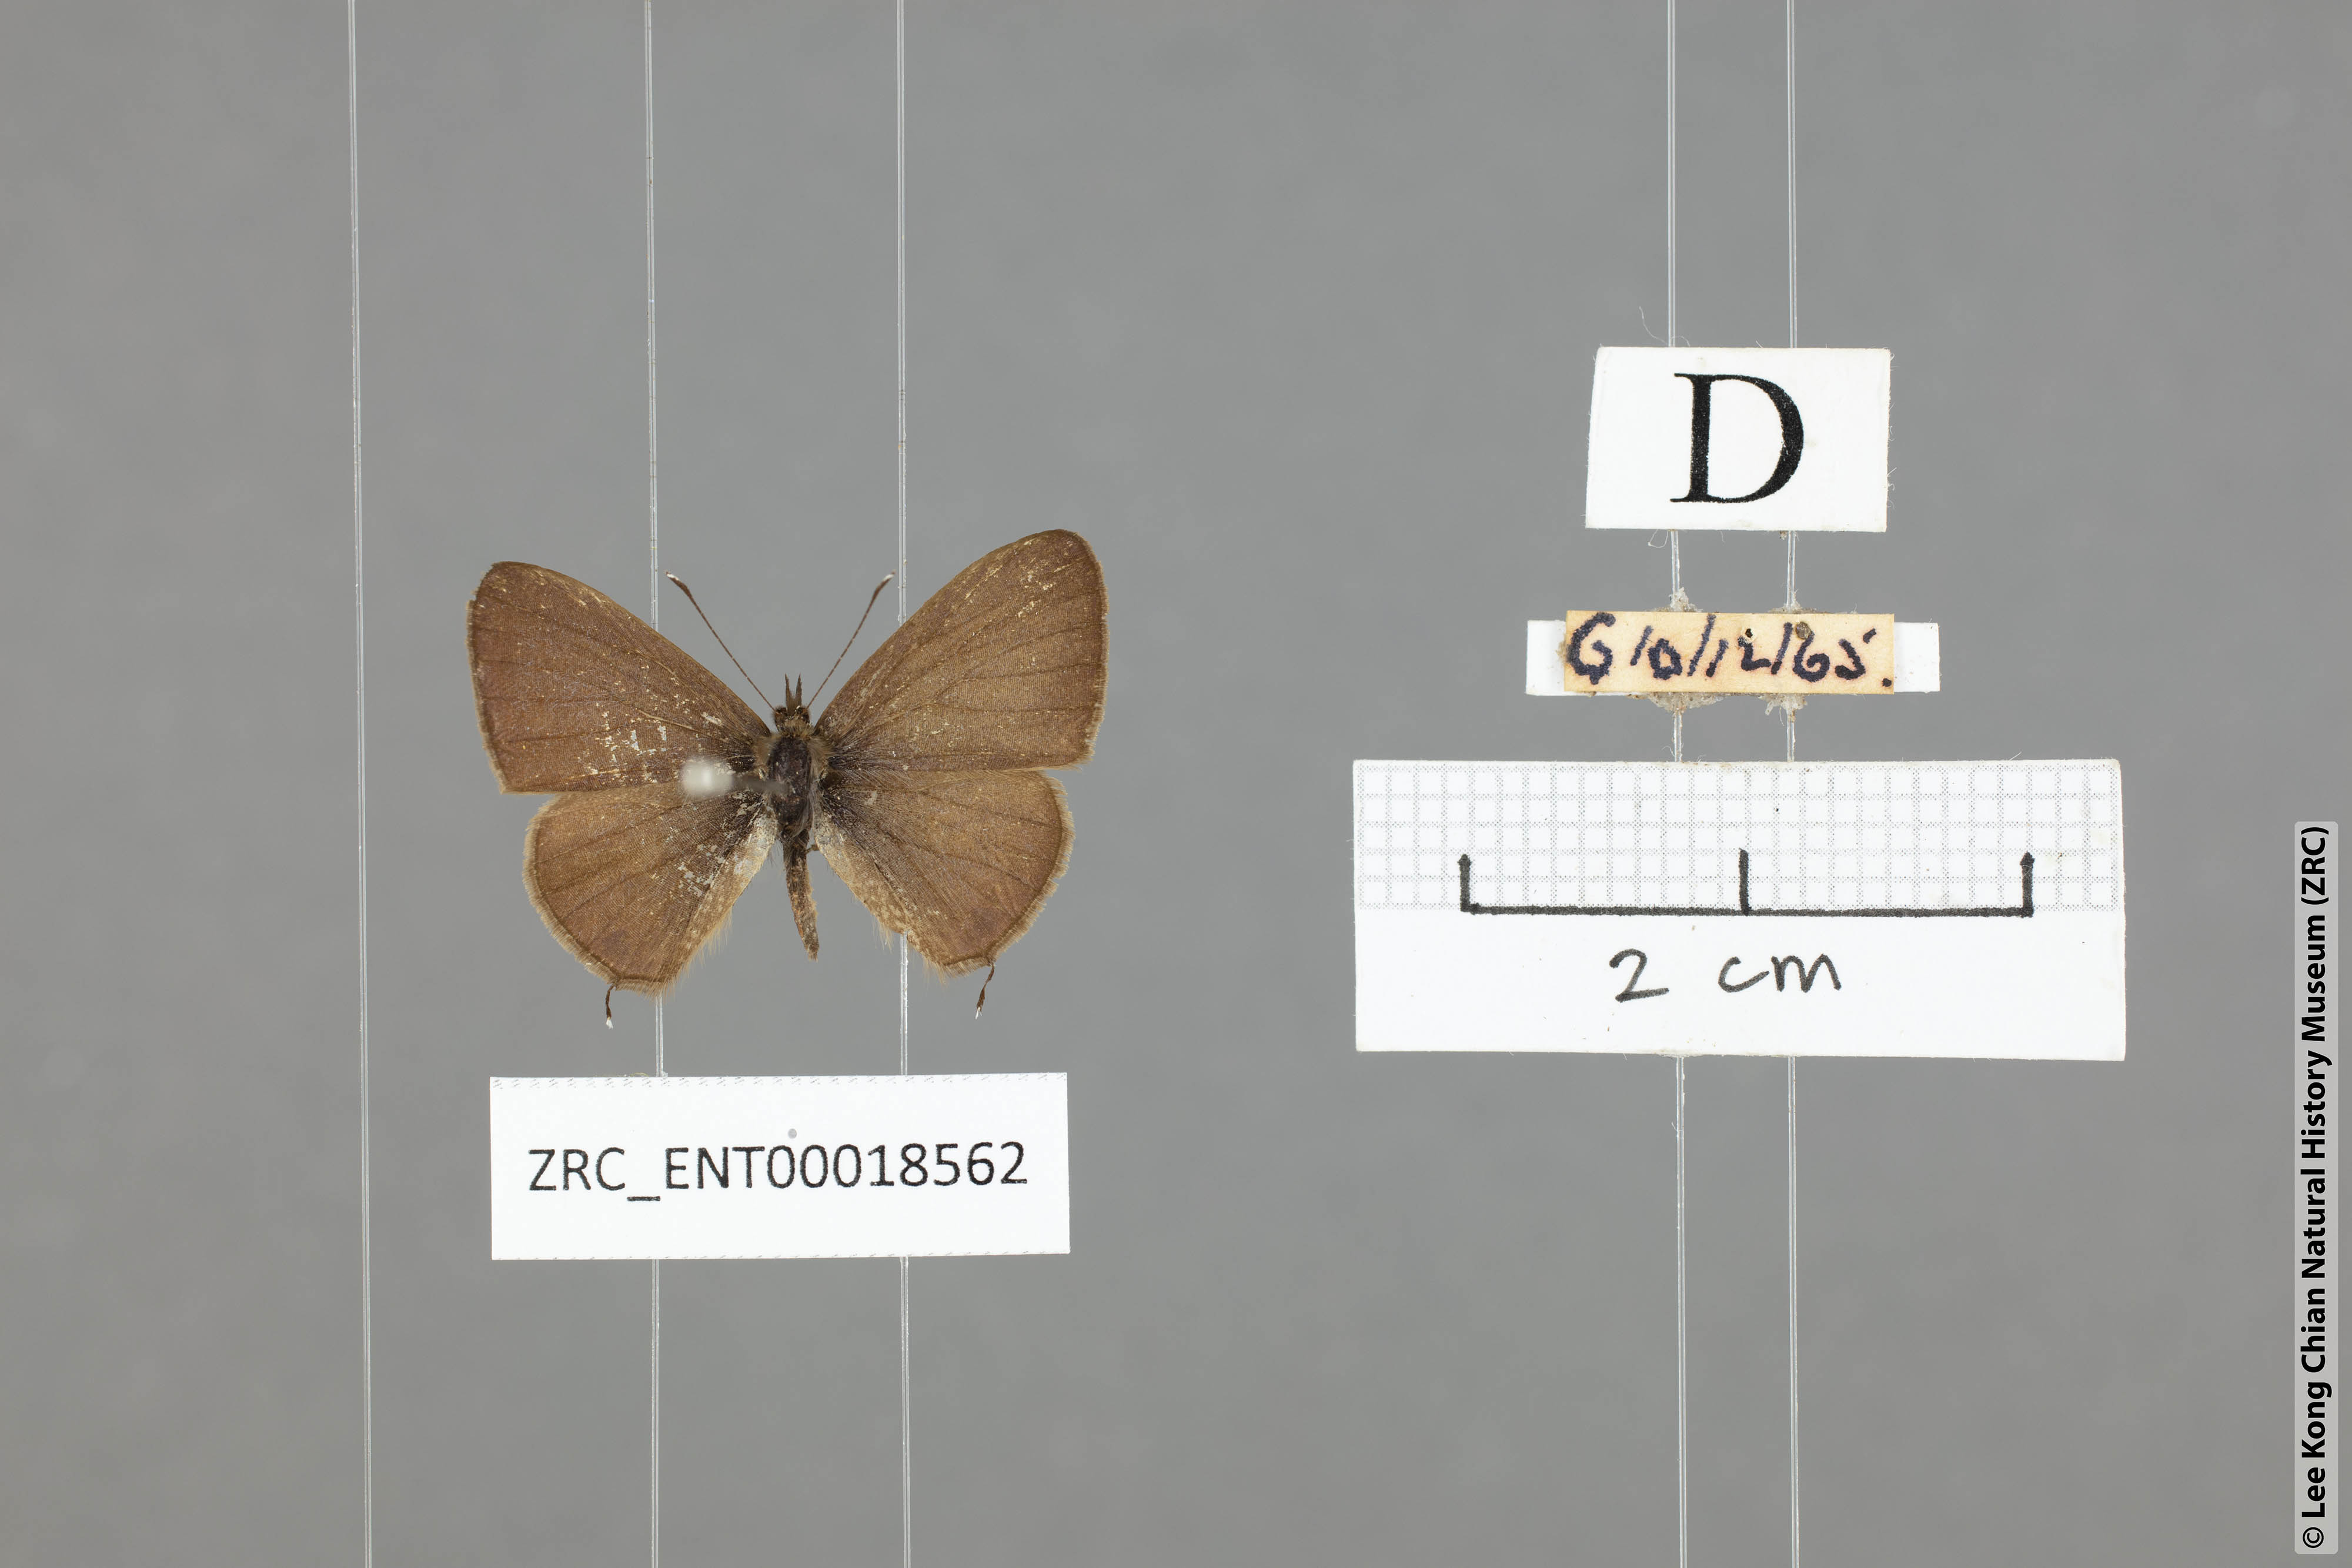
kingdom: Animalia
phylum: Arthropoda
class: Insecta
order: Lepidoptera
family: Lycaenidae
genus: Prosotas
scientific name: Prosotas bhutea
